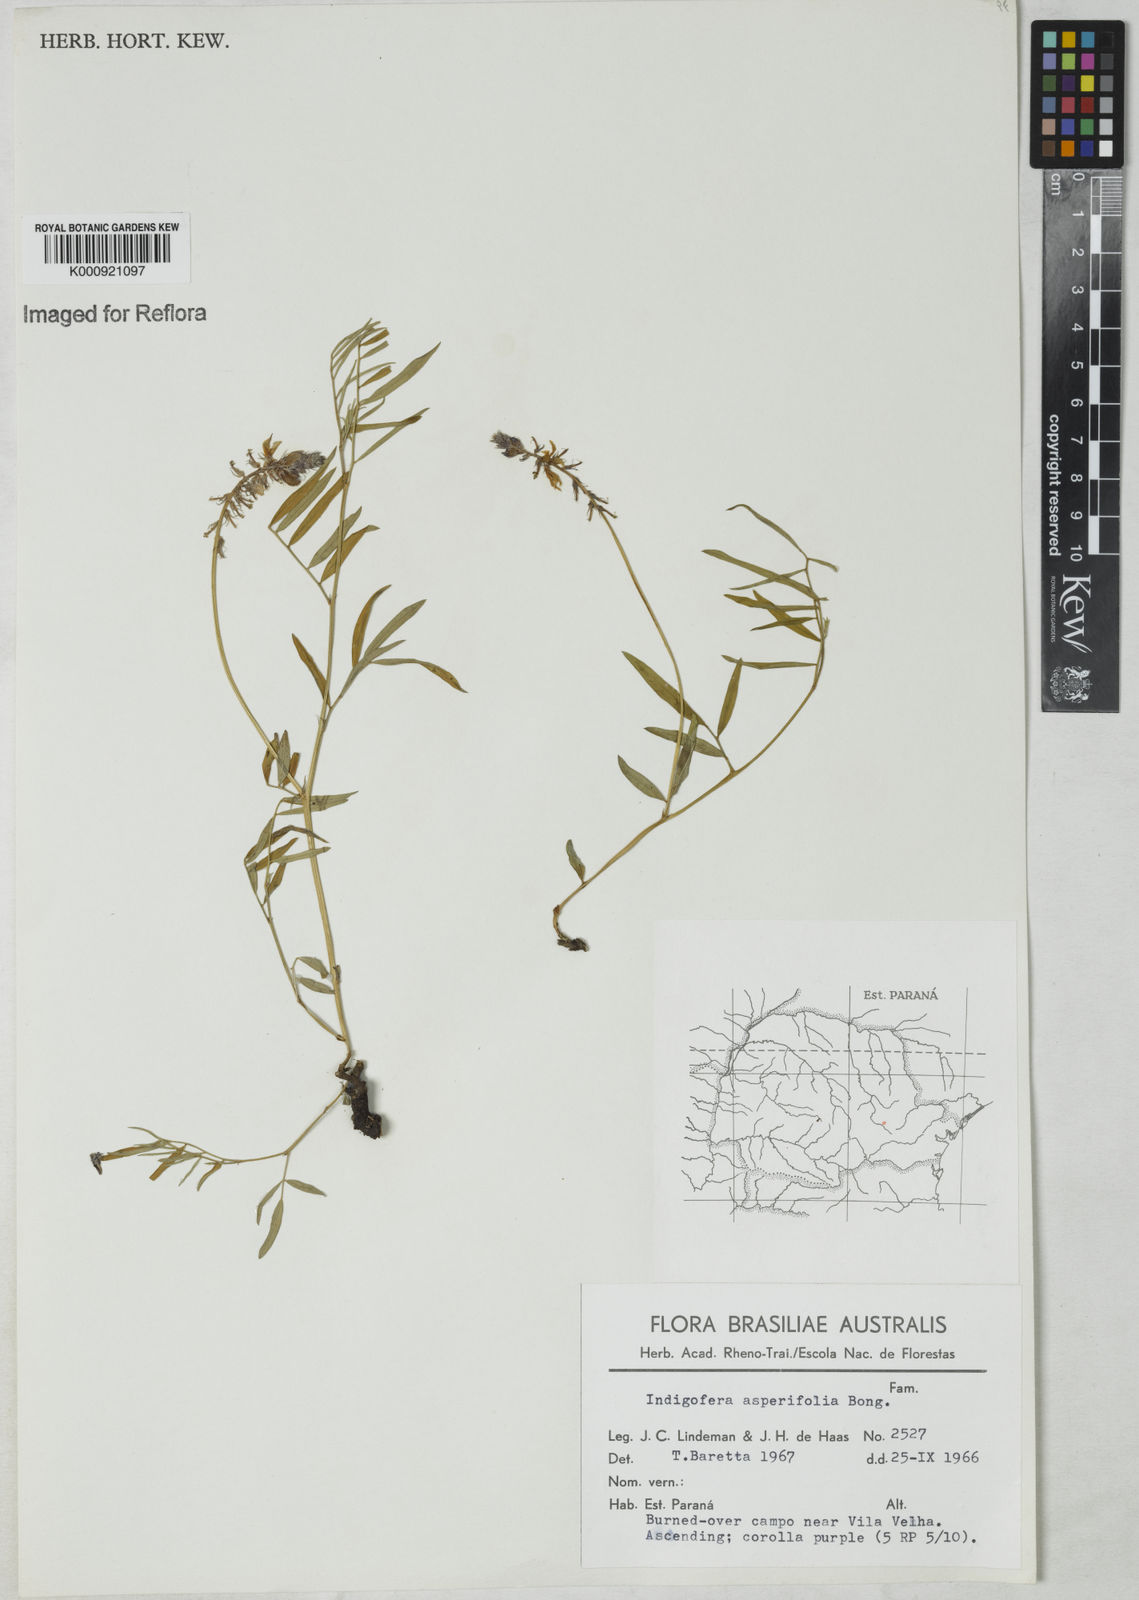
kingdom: Plantae
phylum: Tracheophyta
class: Magnoliopsida
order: Fabales
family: Fabaceae
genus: Indigofera
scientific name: Indigofera
